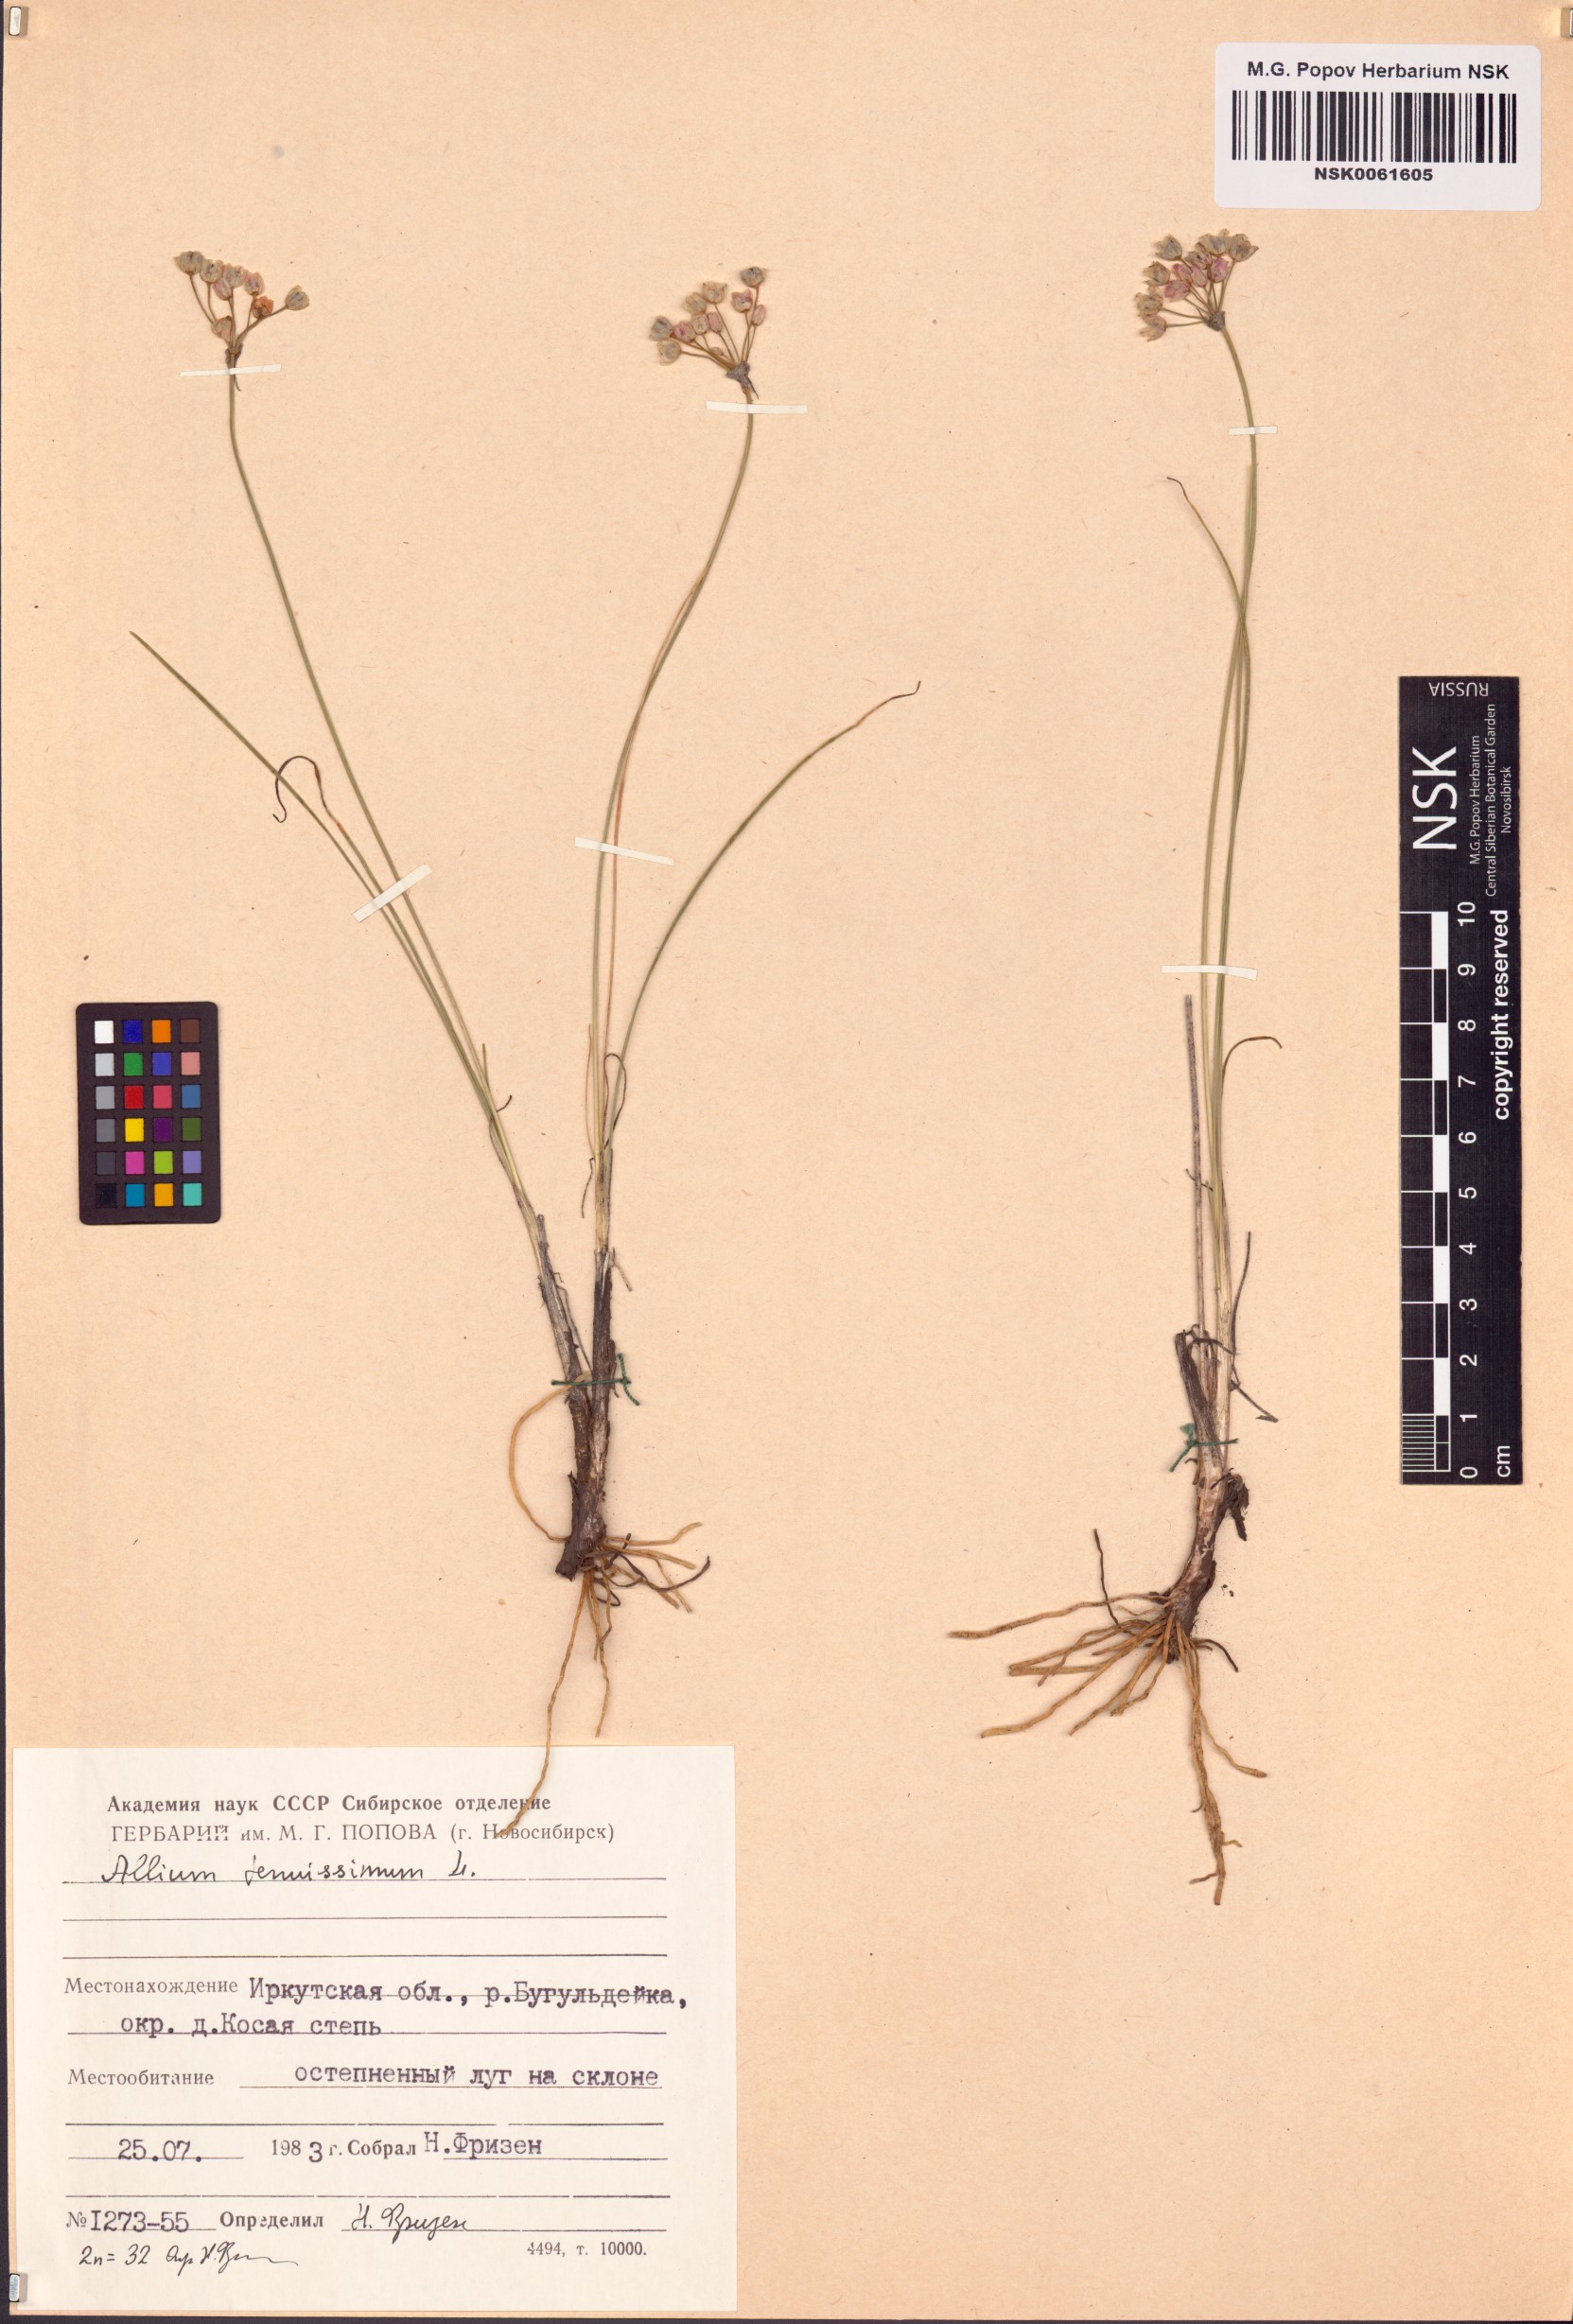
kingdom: Plantae
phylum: Tracheophyta
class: Liliopsida
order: Asparagales
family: Amaryllidaceae
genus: Allium
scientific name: Allium tenuissimum
